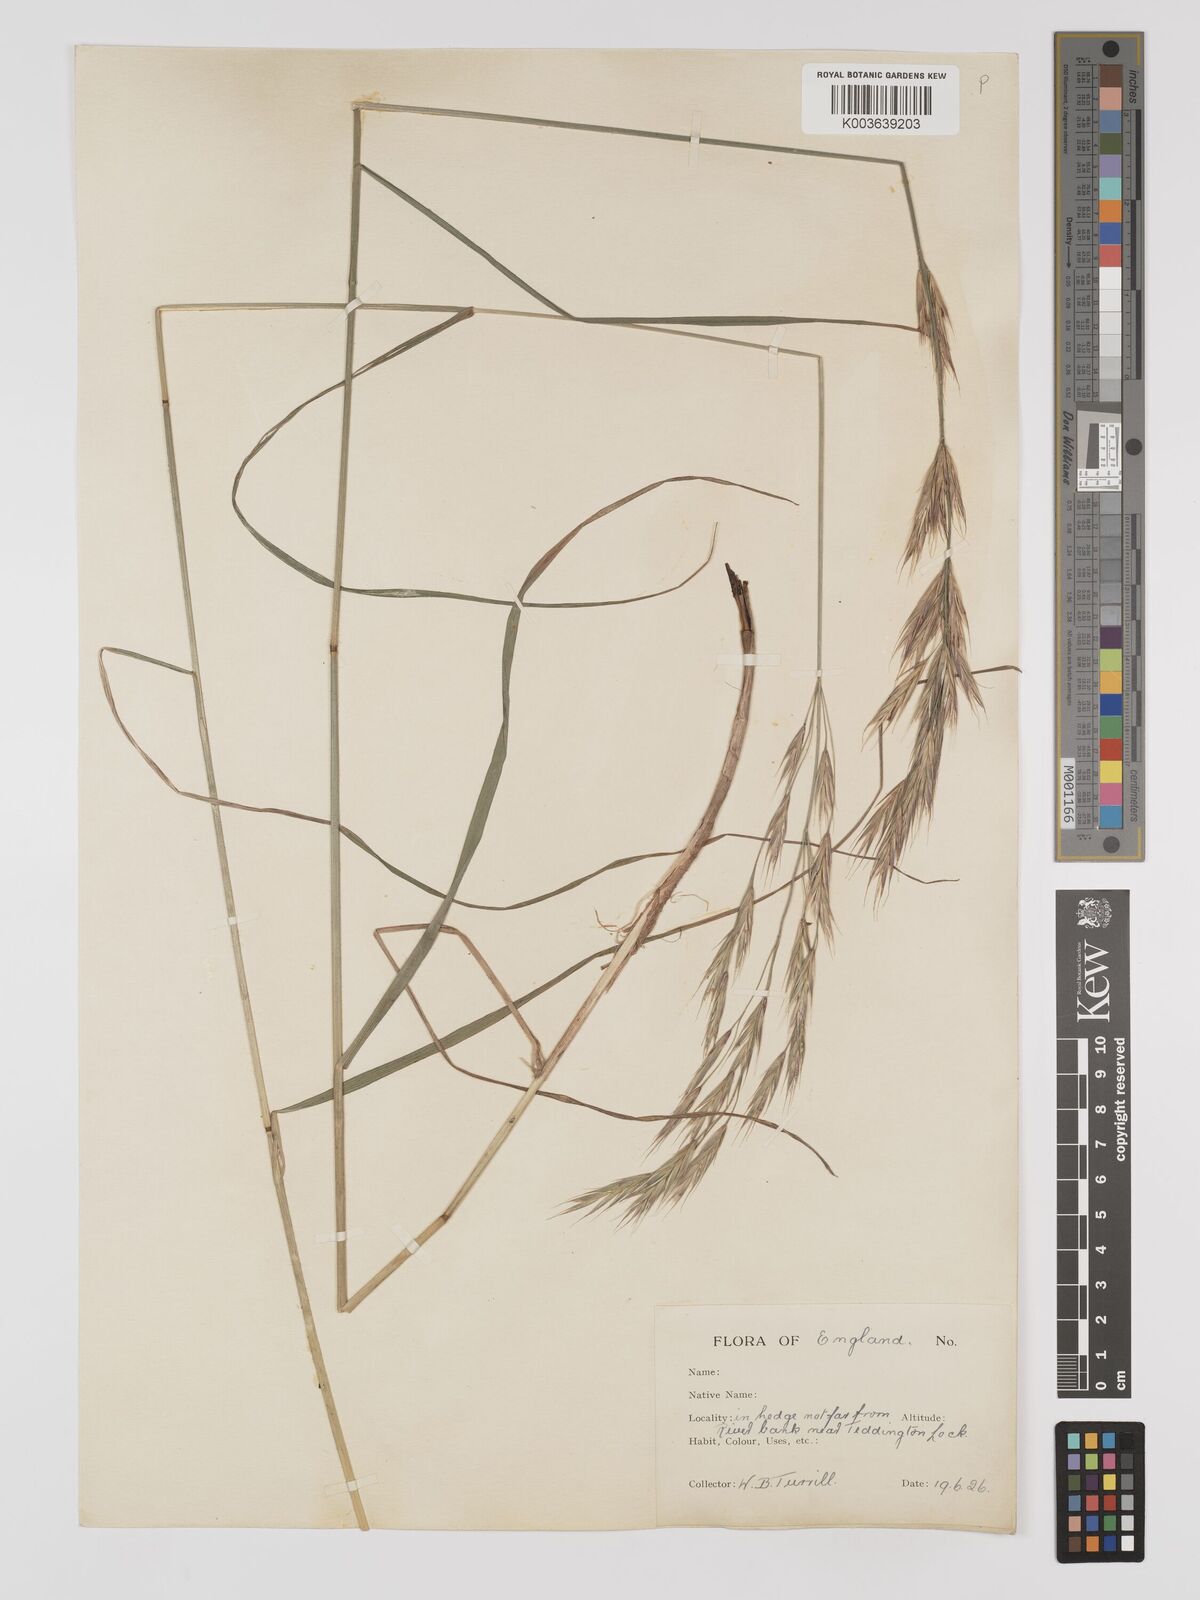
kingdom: Plantae
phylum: Tracheophyta
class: Liliopsida
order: Poales
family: Poaceae
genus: Bromus
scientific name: Bromus erectus
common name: Erect brome
